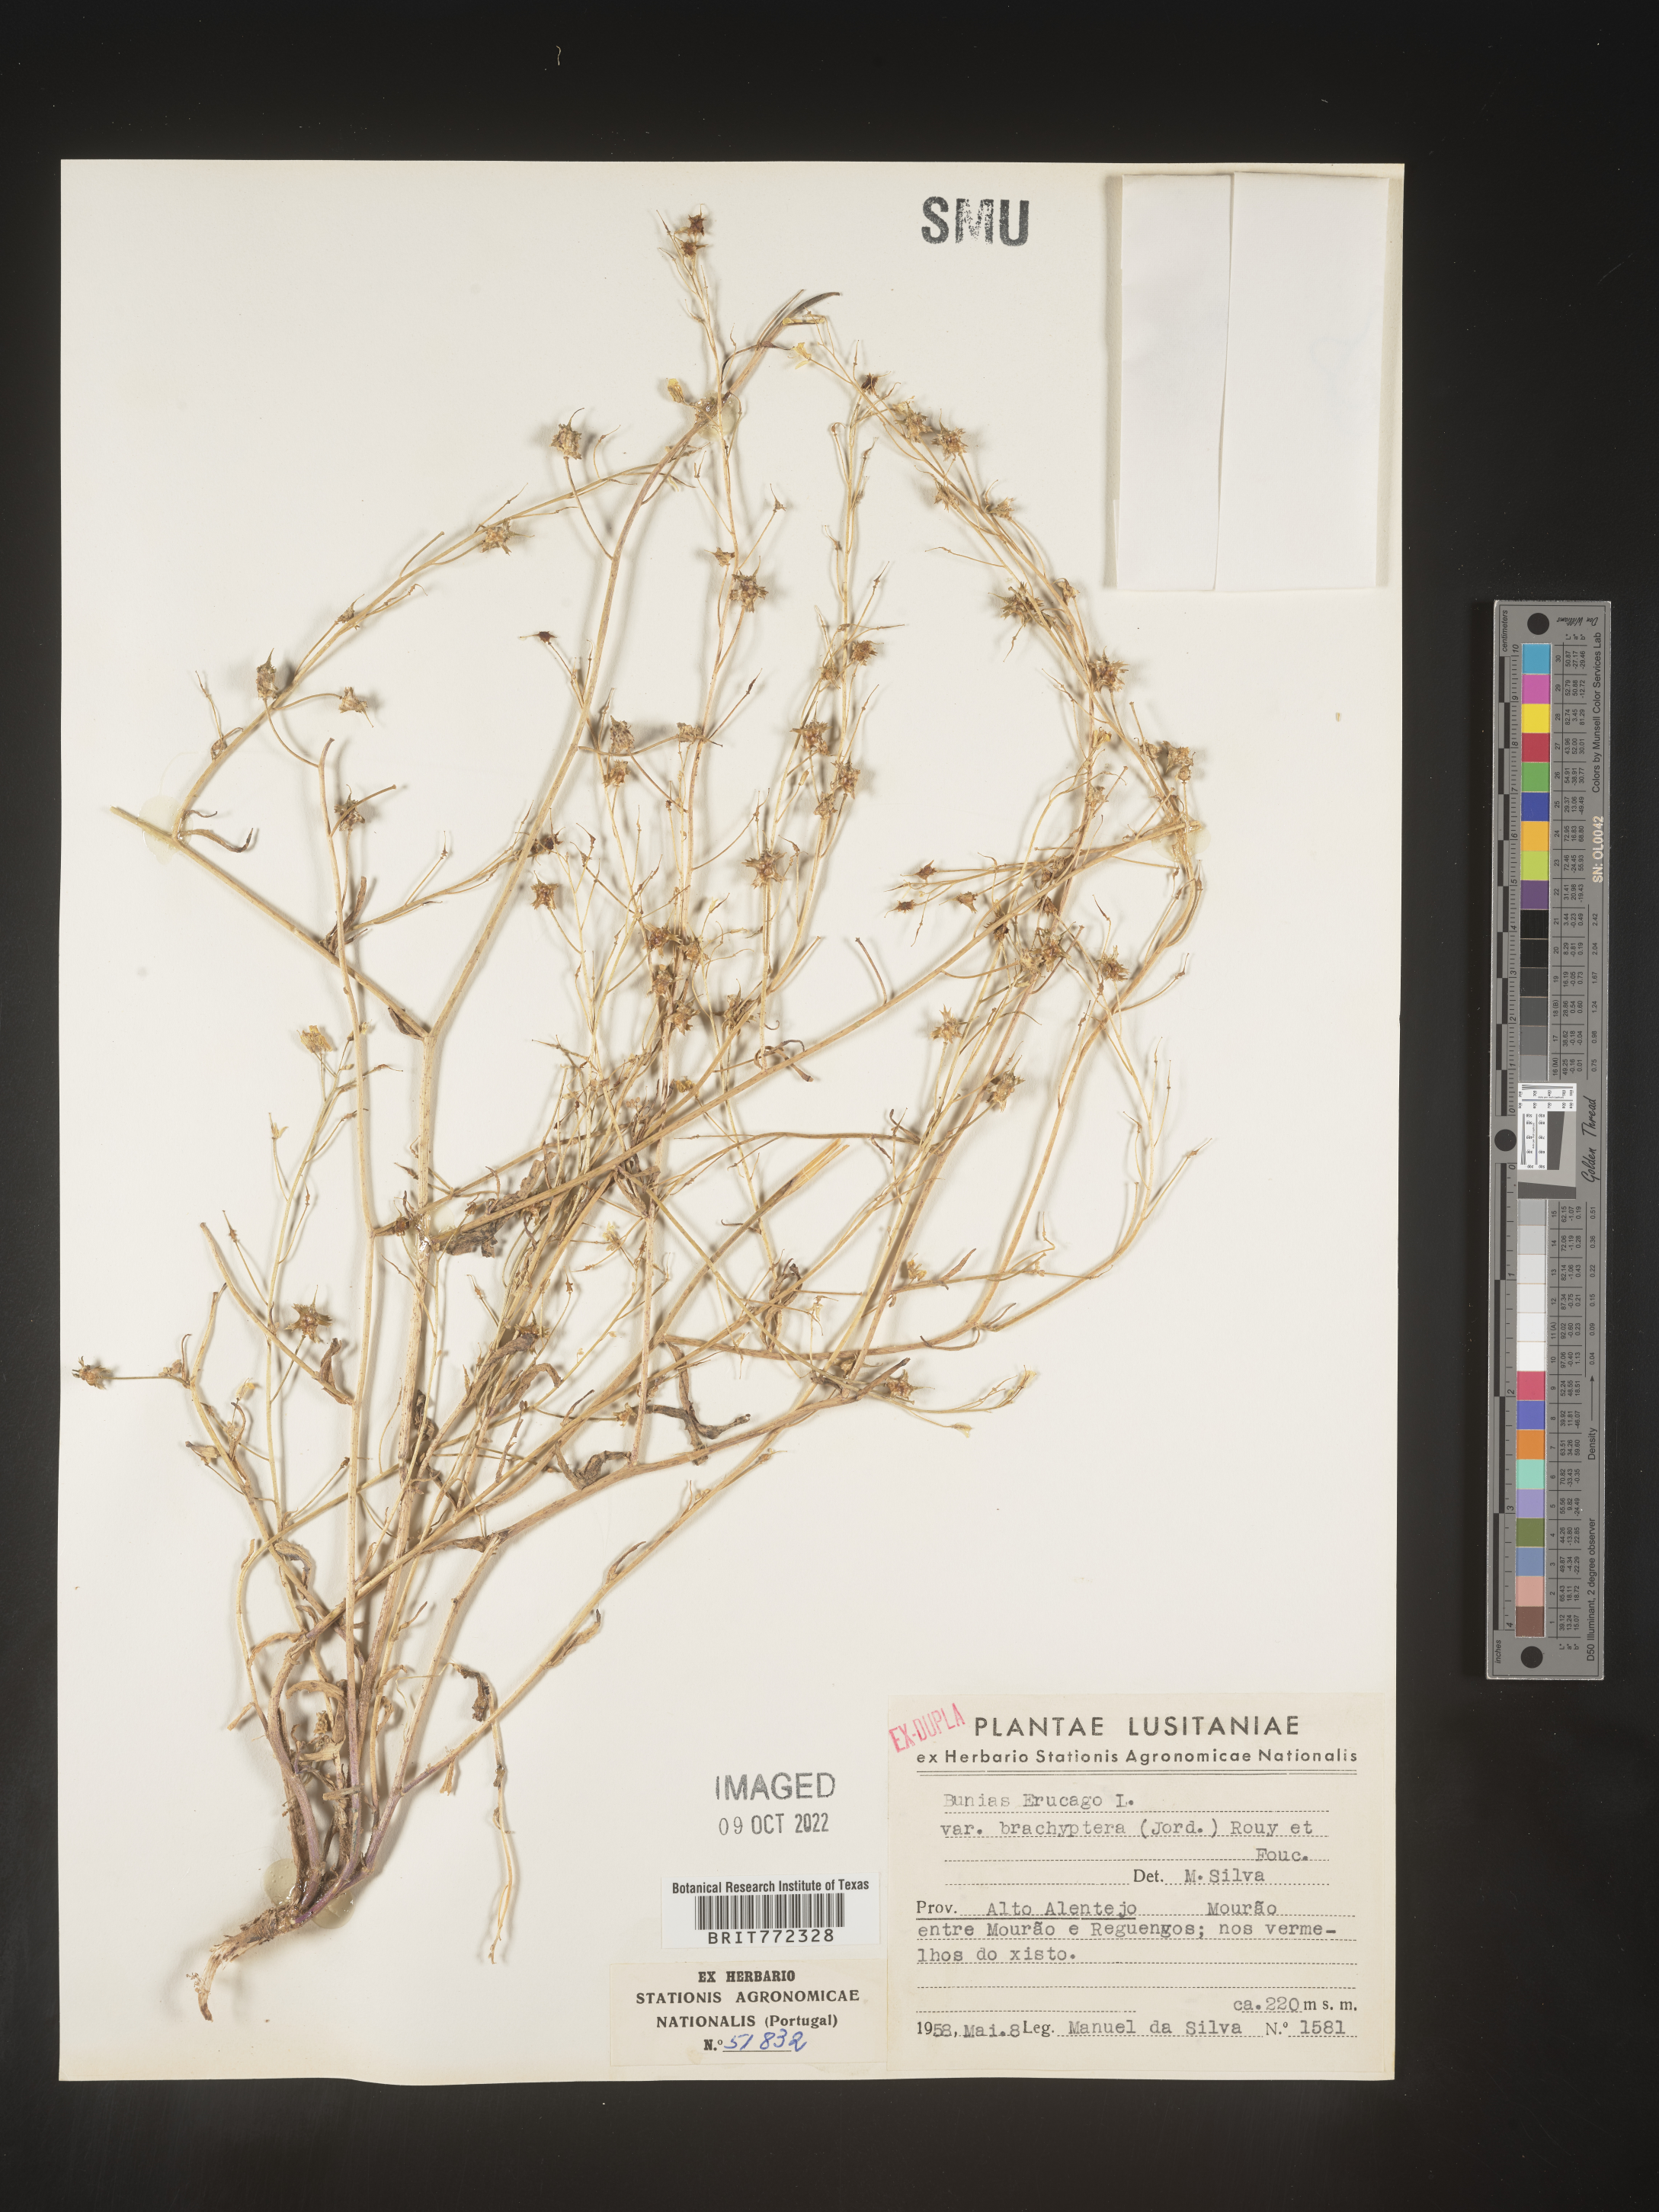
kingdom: Plantae
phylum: Tracheophyta
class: Magnoliopsida
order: Brassicales
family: Brassicaceae
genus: Bunias
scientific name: Bunias
